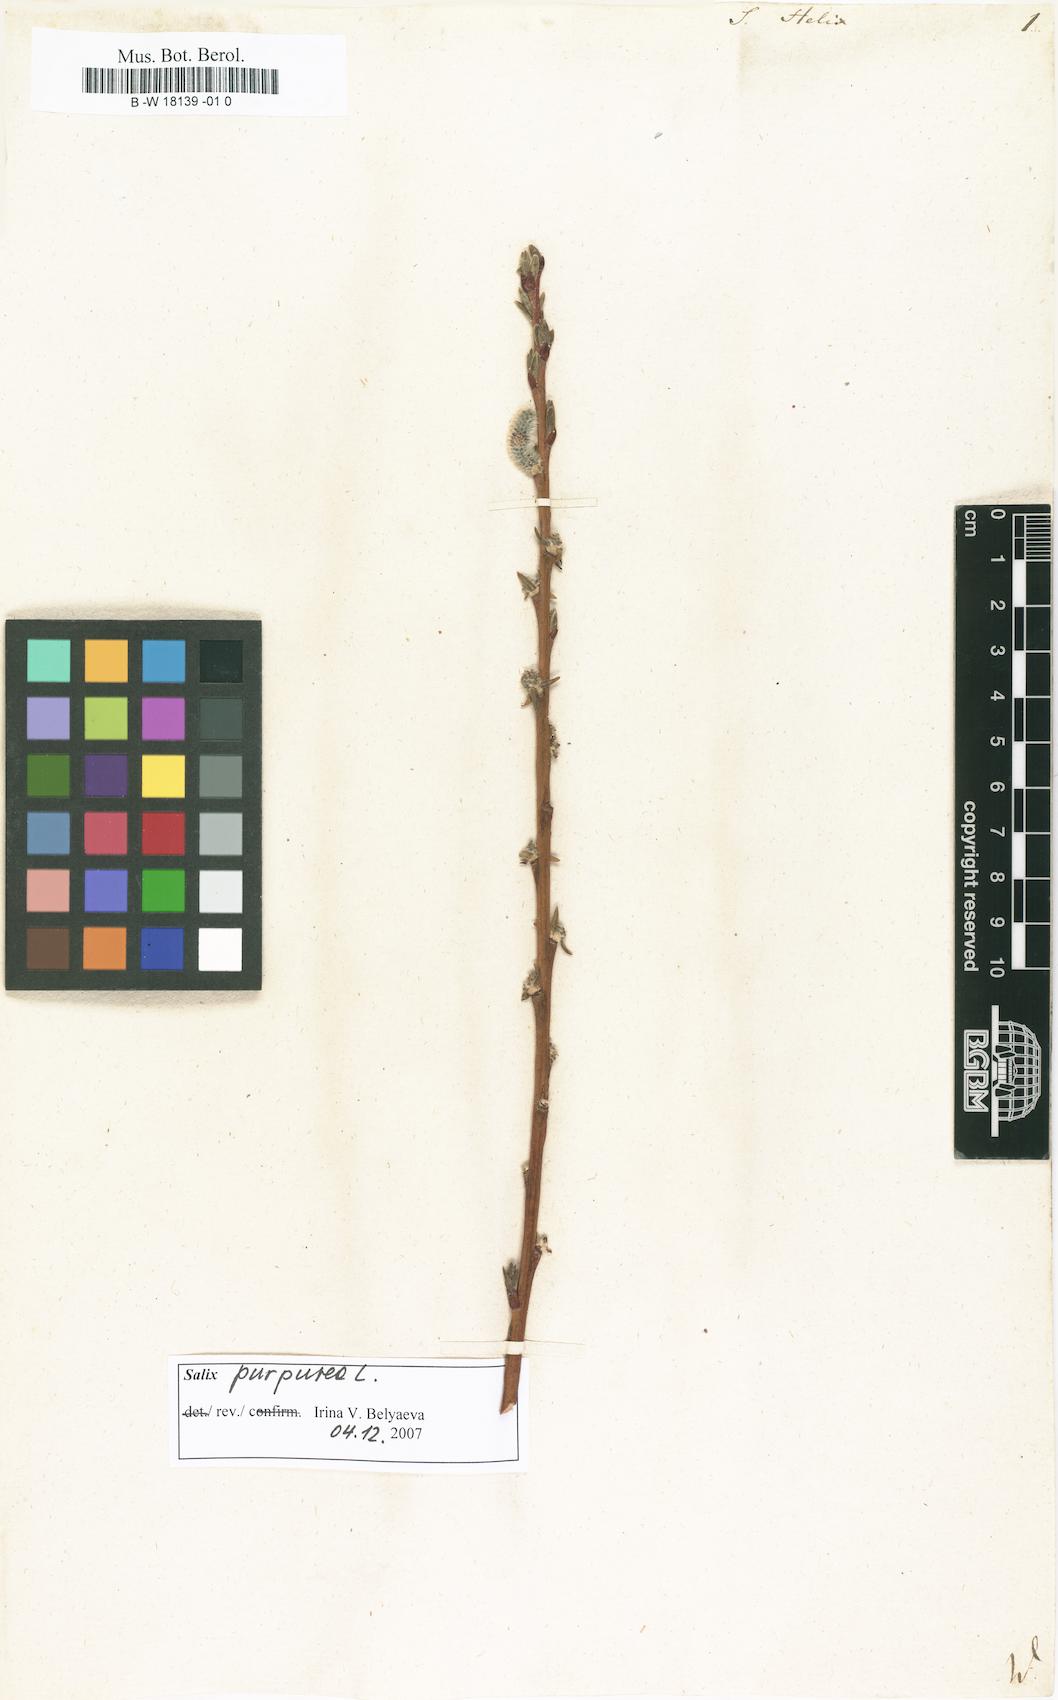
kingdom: Plantae
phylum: Tracheophyta
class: Magnoliopsida
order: Malpighiales
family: Salicaceae
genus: Salix
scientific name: Salix purpurea
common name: Purple willow
